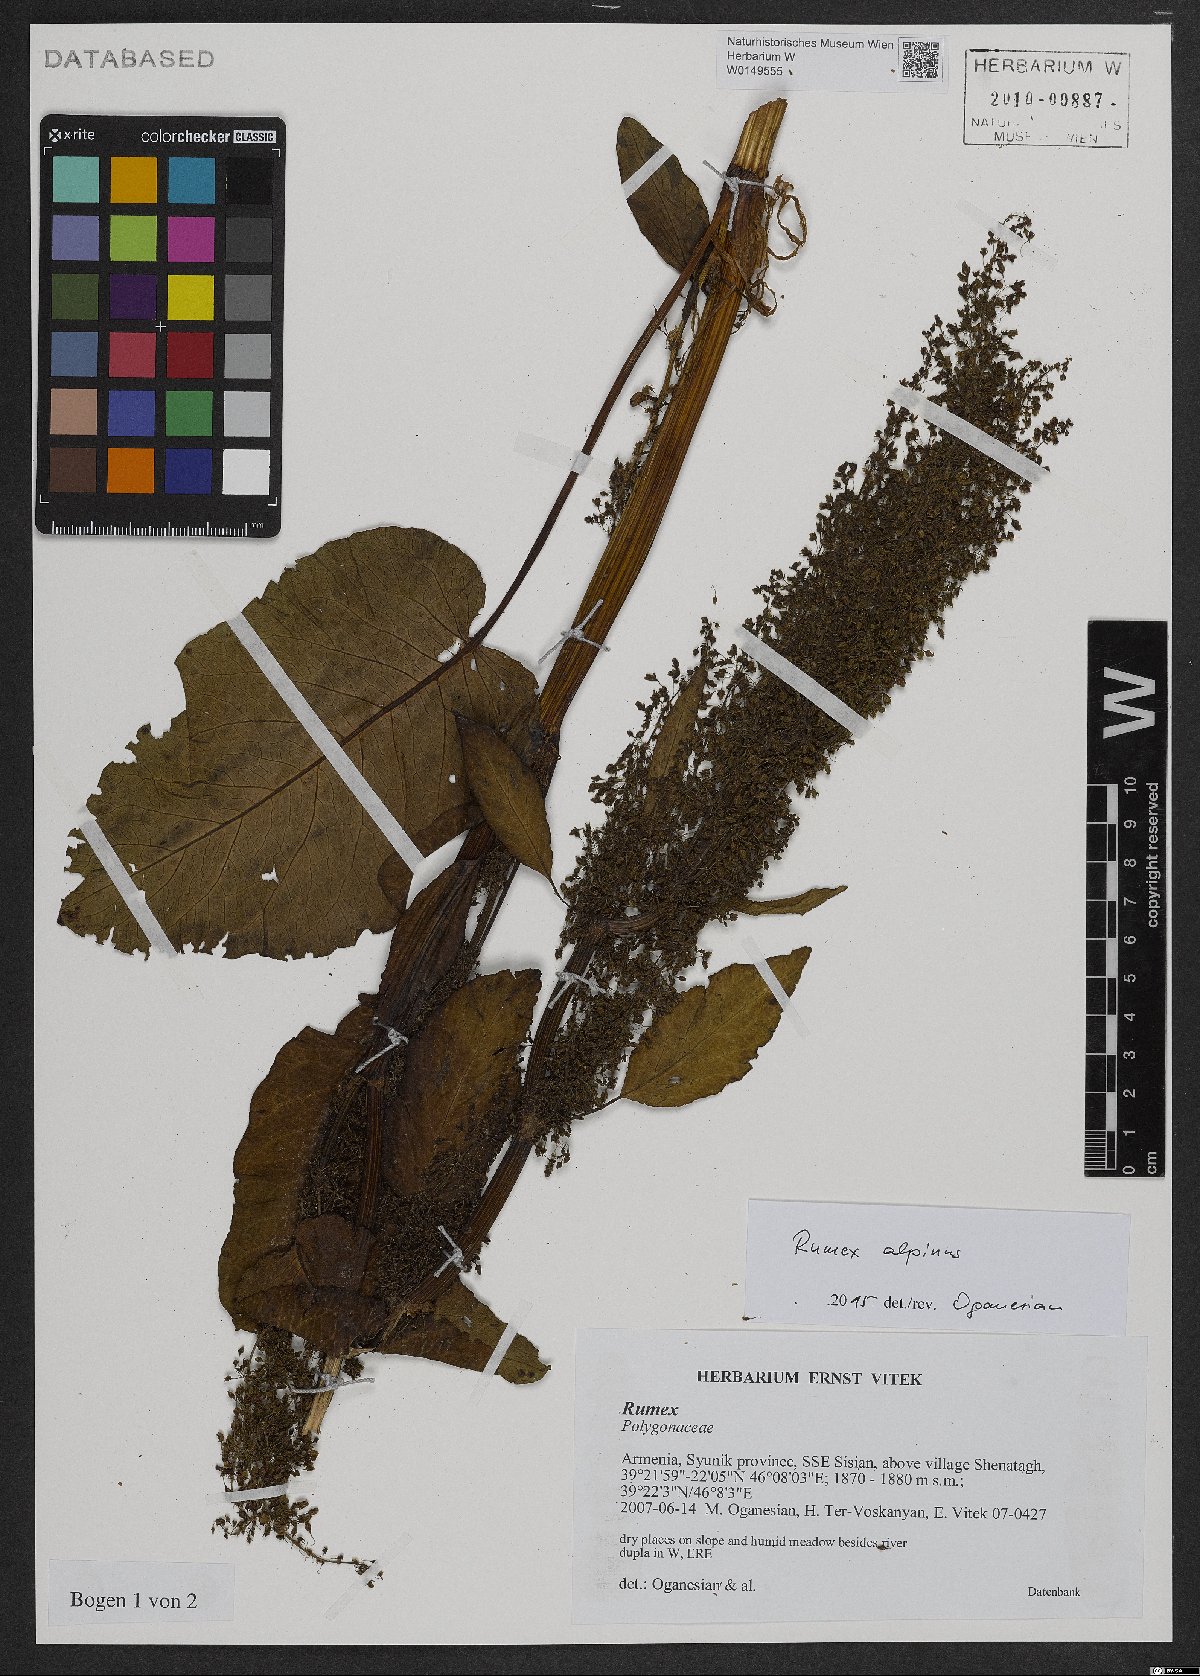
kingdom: Plantae
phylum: Tracheophyta
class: Magnoliopsida
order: Caryophyllales
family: Polygonaceae
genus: Rumex
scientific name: Rumex alpinus
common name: Alpine dock
